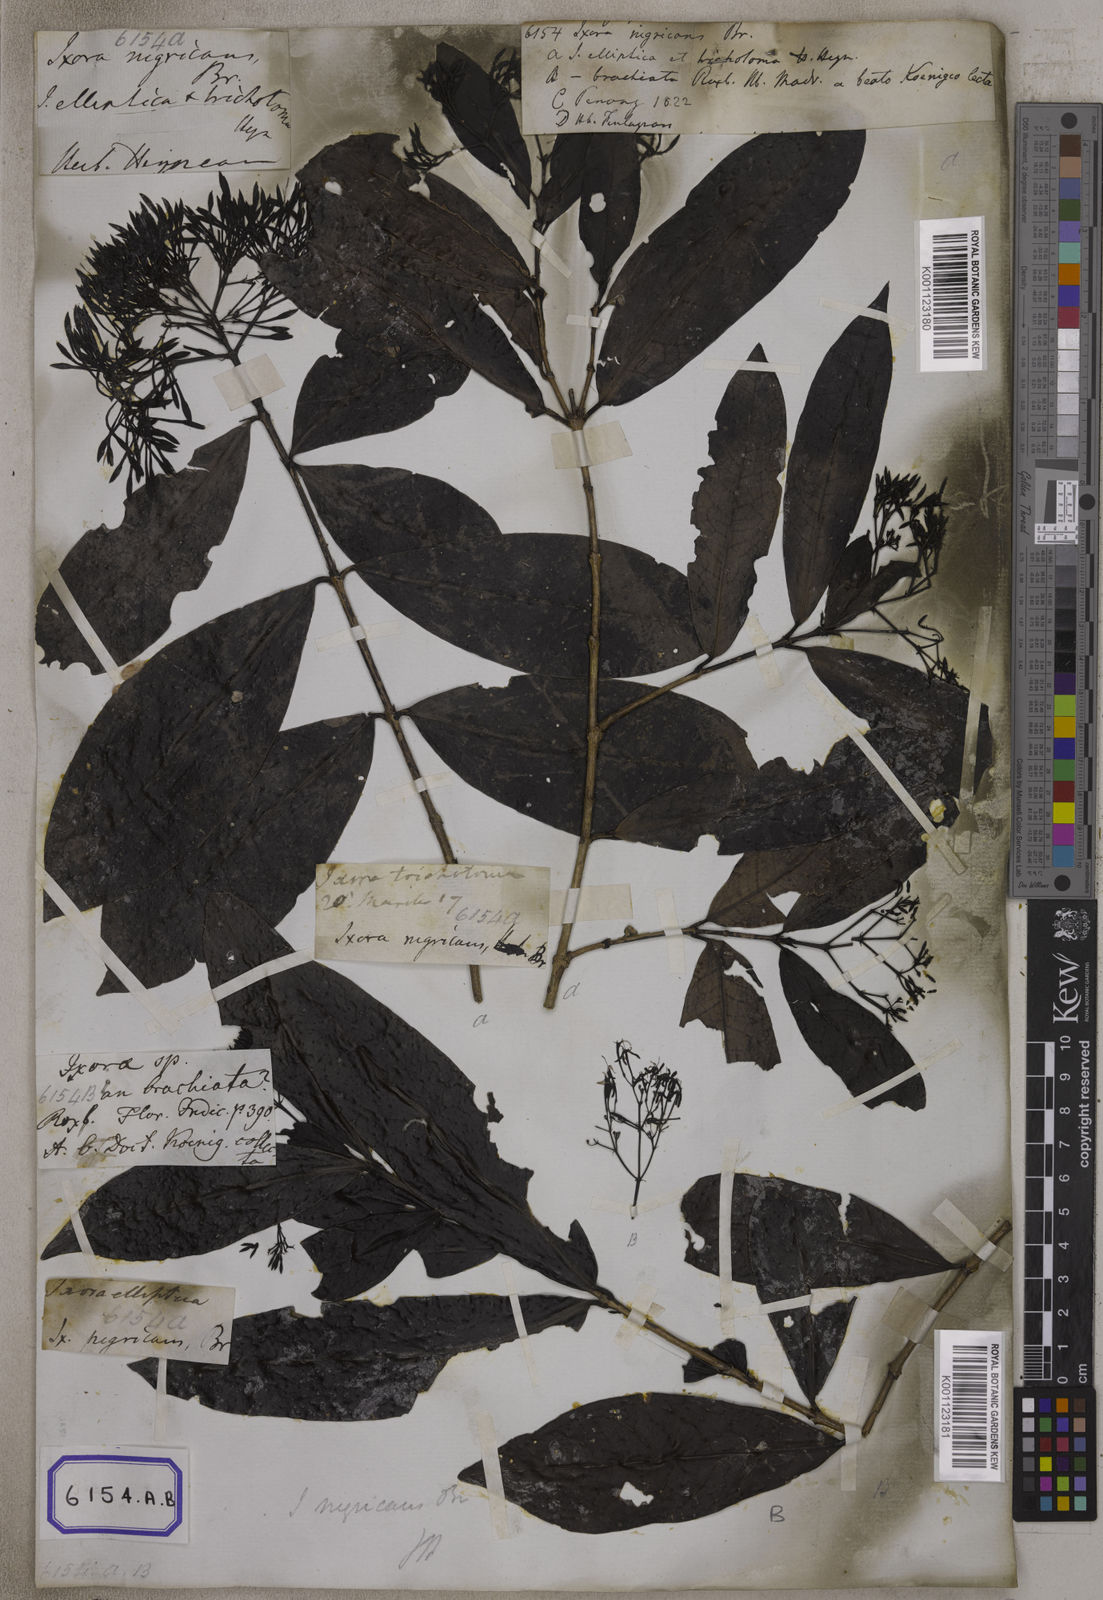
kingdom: Plantae
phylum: Tracheophyta
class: Magnoliopsida
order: Gentianales
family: Rubiaceae
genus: Ixora
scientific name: Ixora
